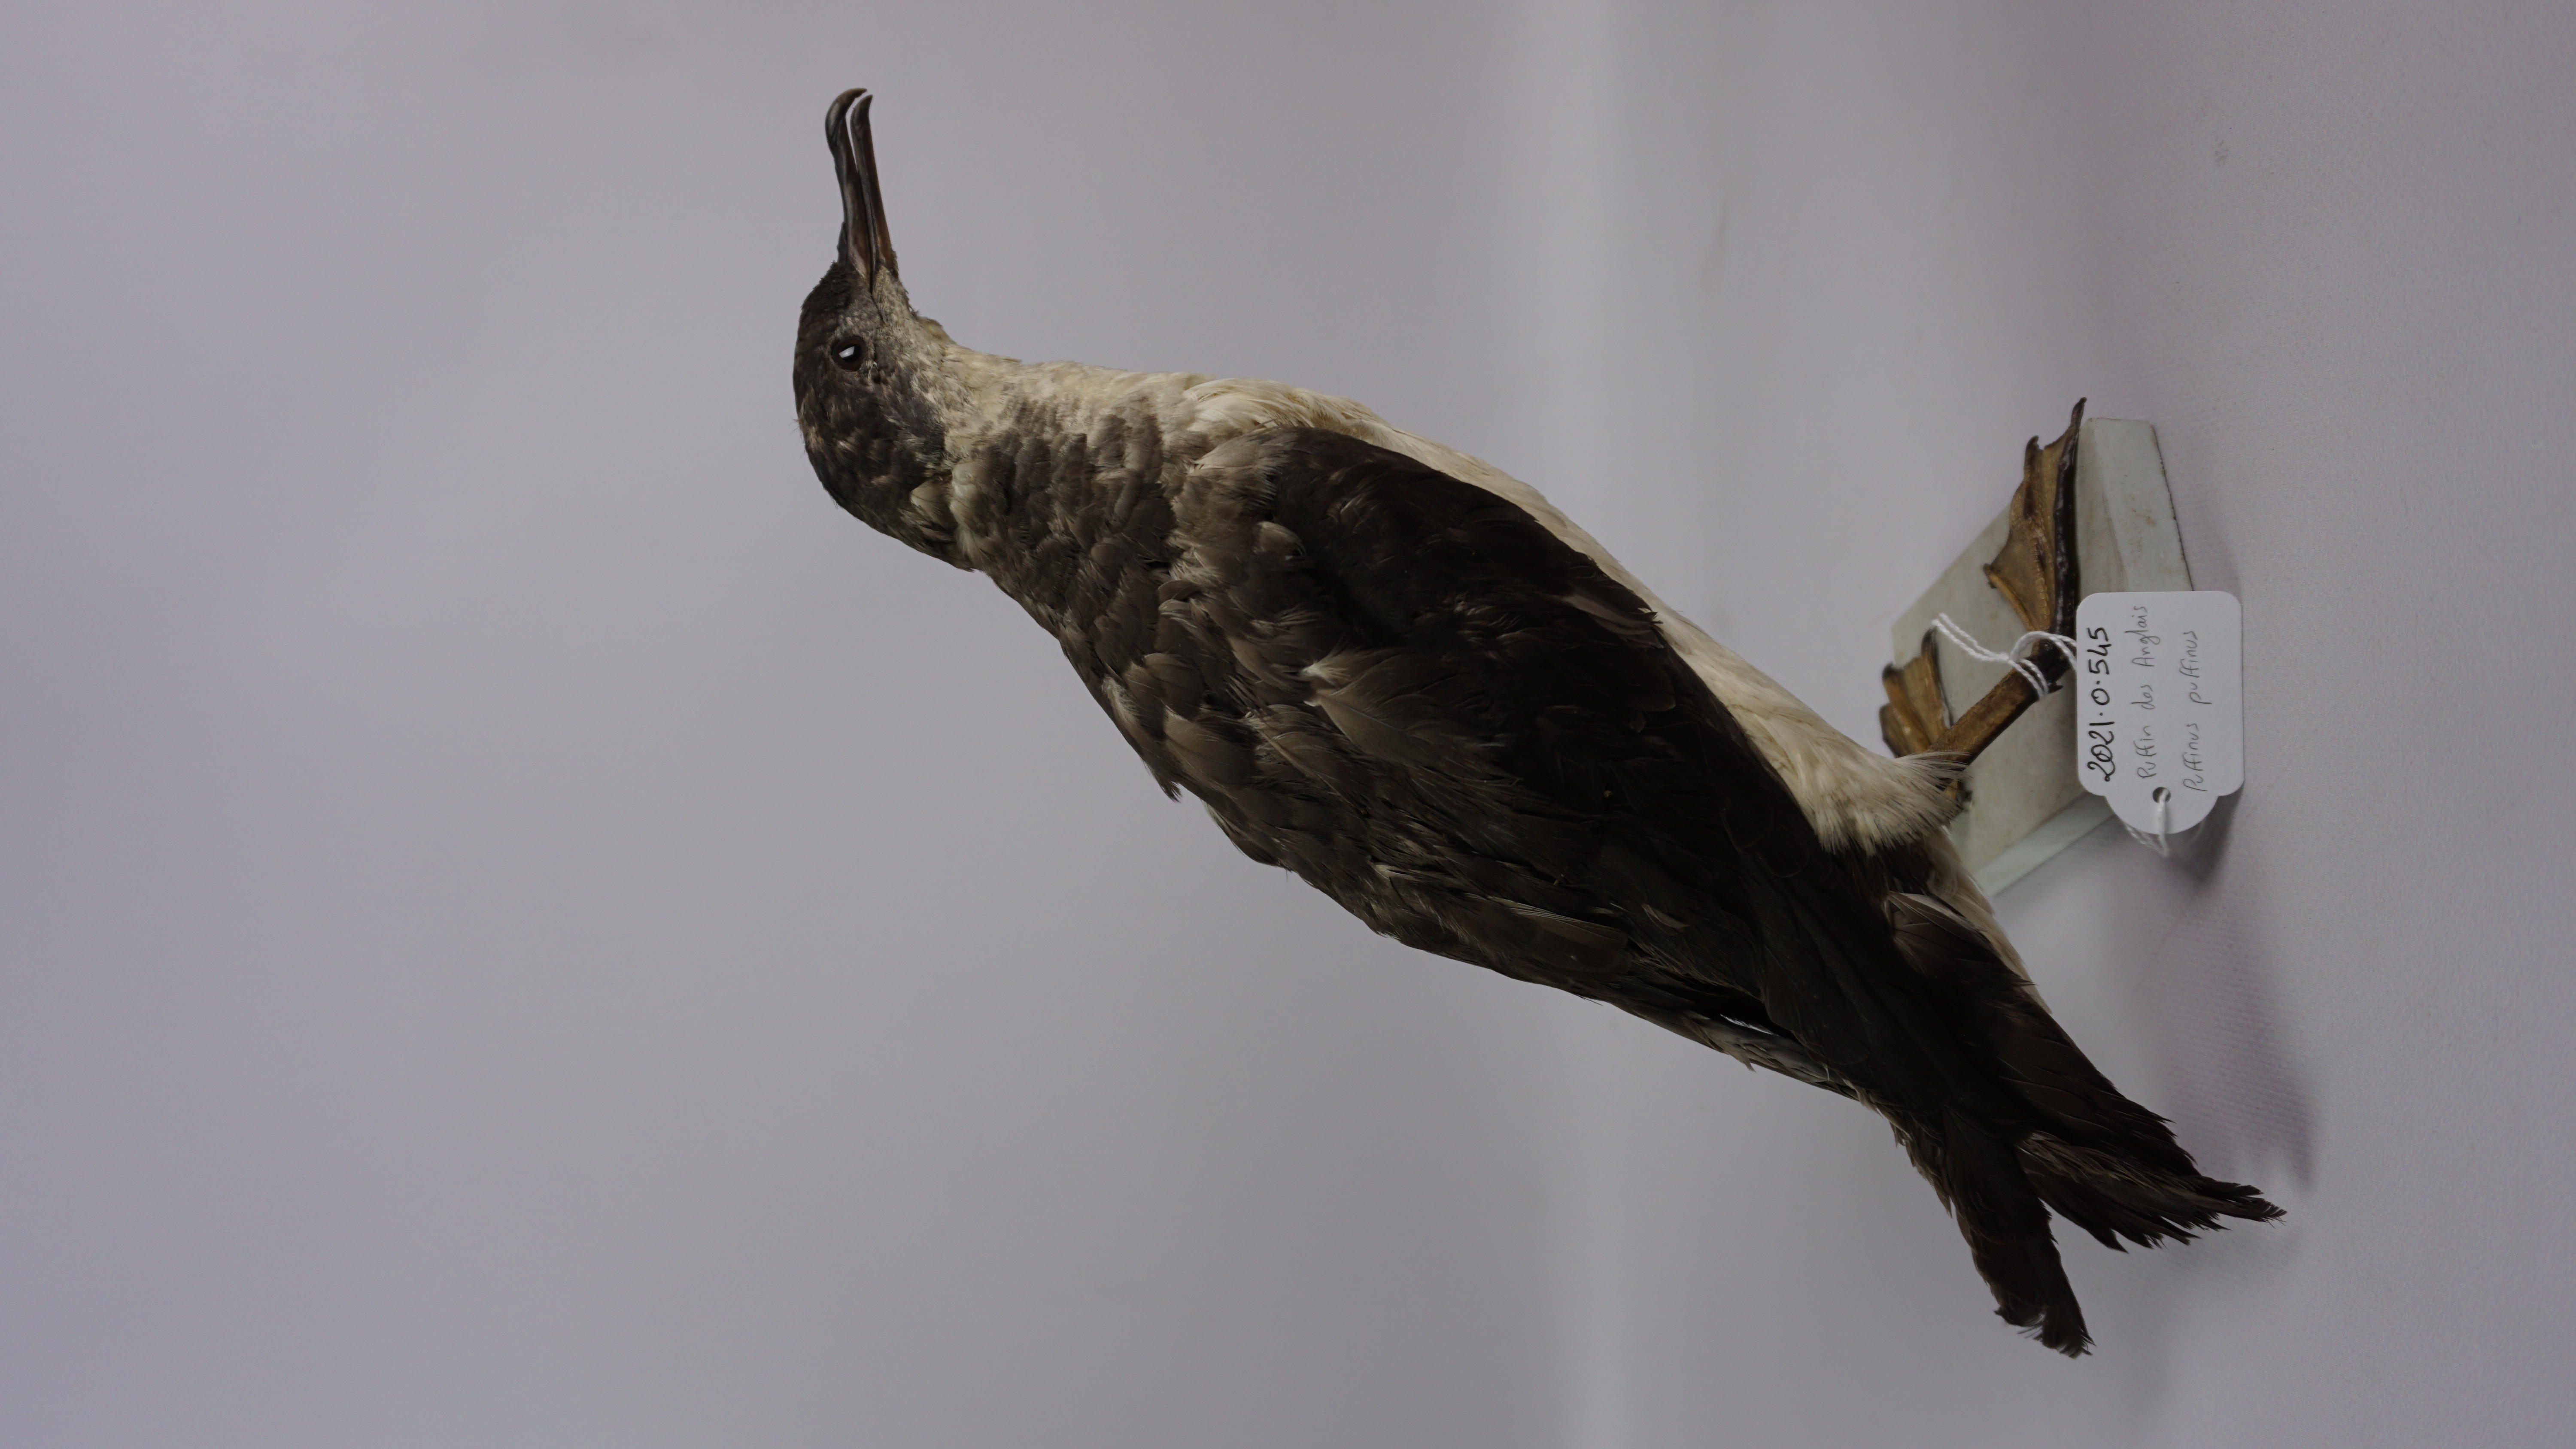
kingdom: Animalia
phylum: Chordata
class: Aves
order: Procellariiformes
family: Procellariidae
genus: Puffinus
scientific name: Puffinus puffinus
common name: Manx shearwater
